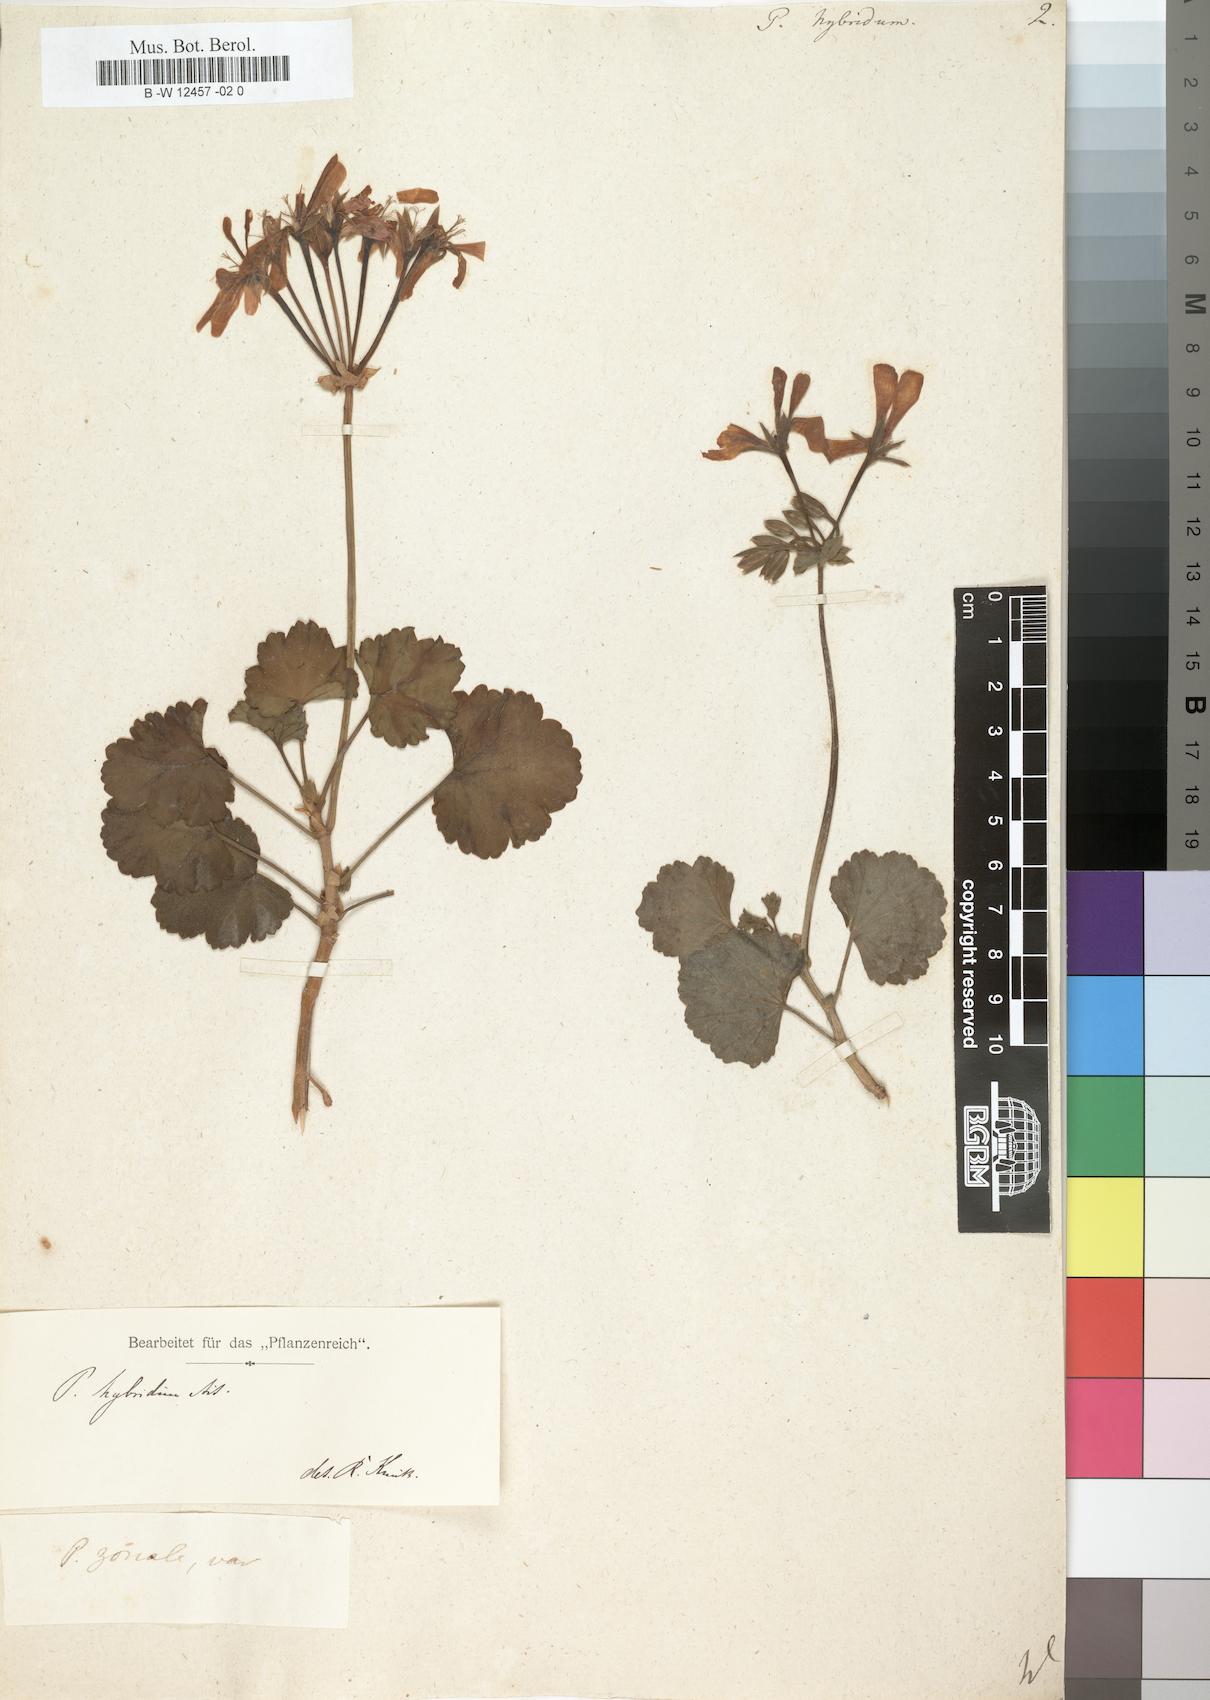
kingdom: Plantae
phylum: Tracheophyta
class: Magnoliopsida
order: Geraniales
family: Geraniaceae
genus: Pelargonium
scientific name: Pelargonium hybridum
